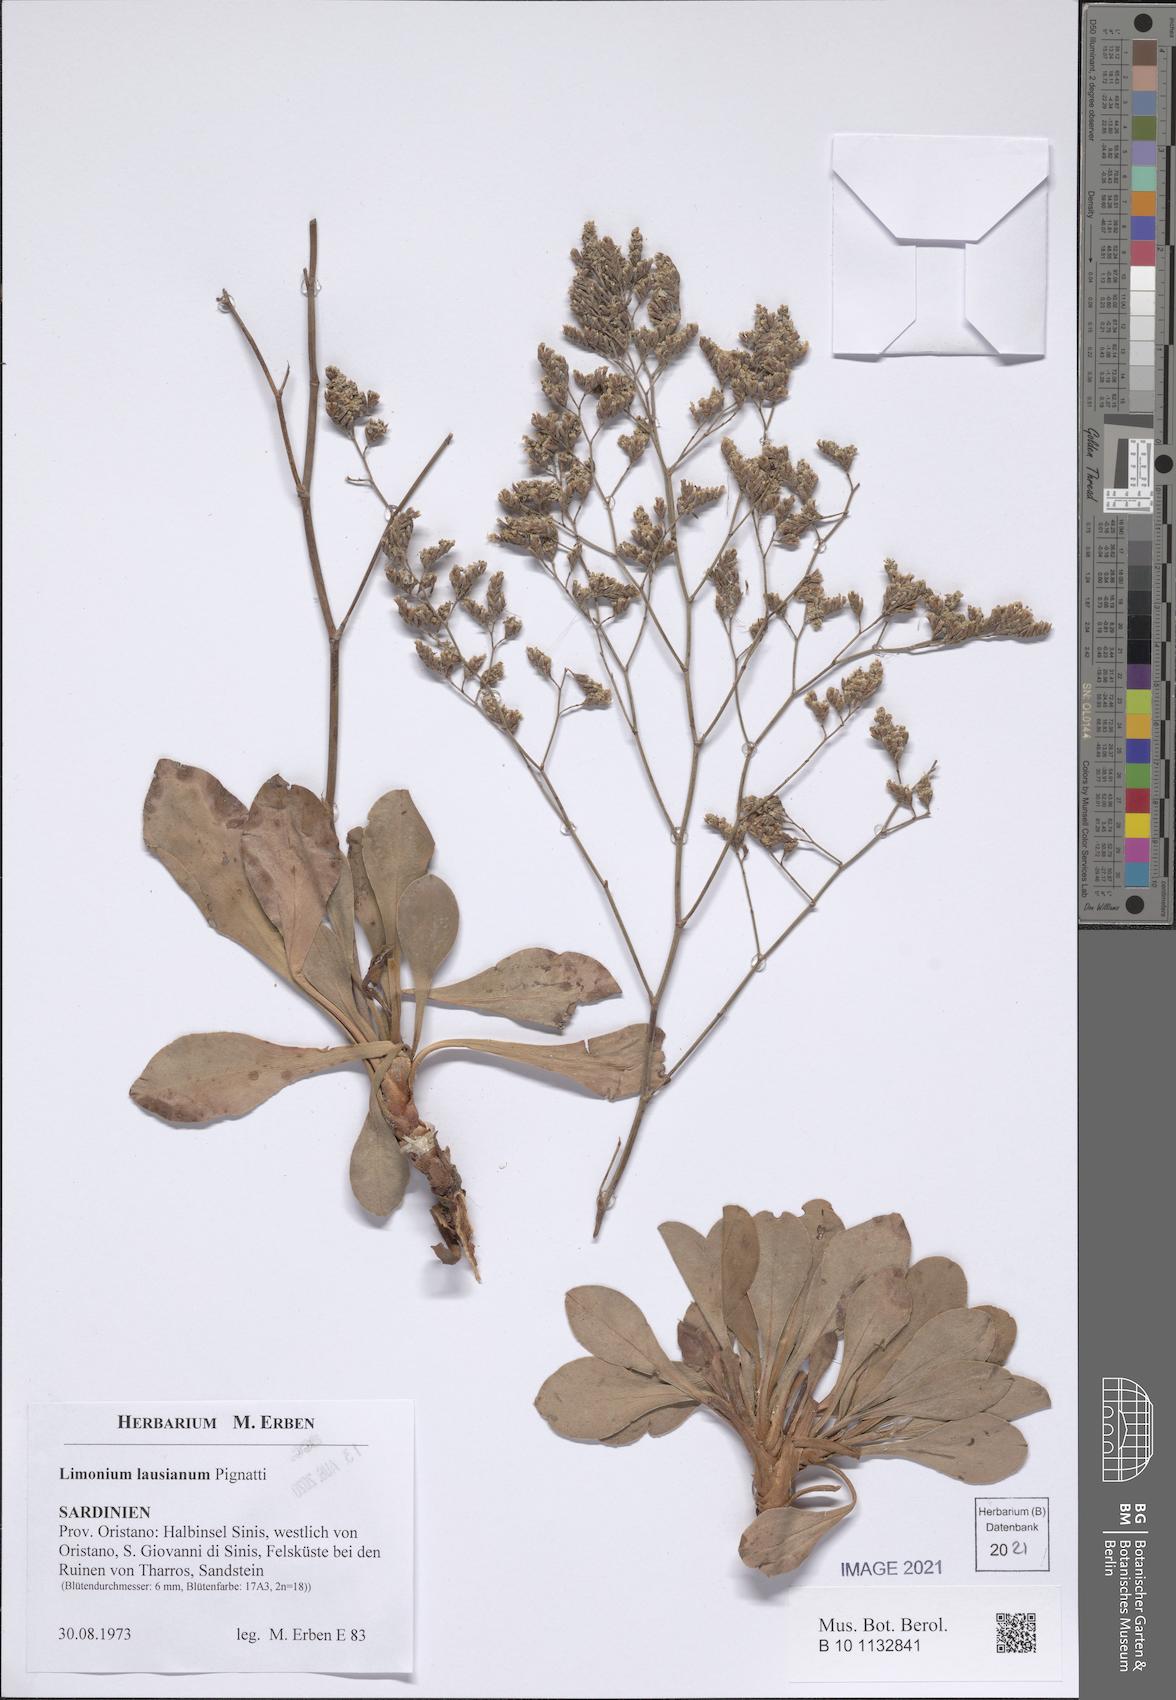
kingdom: Plantae
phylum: Tracheophyta
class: Magnoliopsida
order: Caryophyllales
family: Plumbaginaceae
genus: Limonium
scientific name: Limonium lausianum
